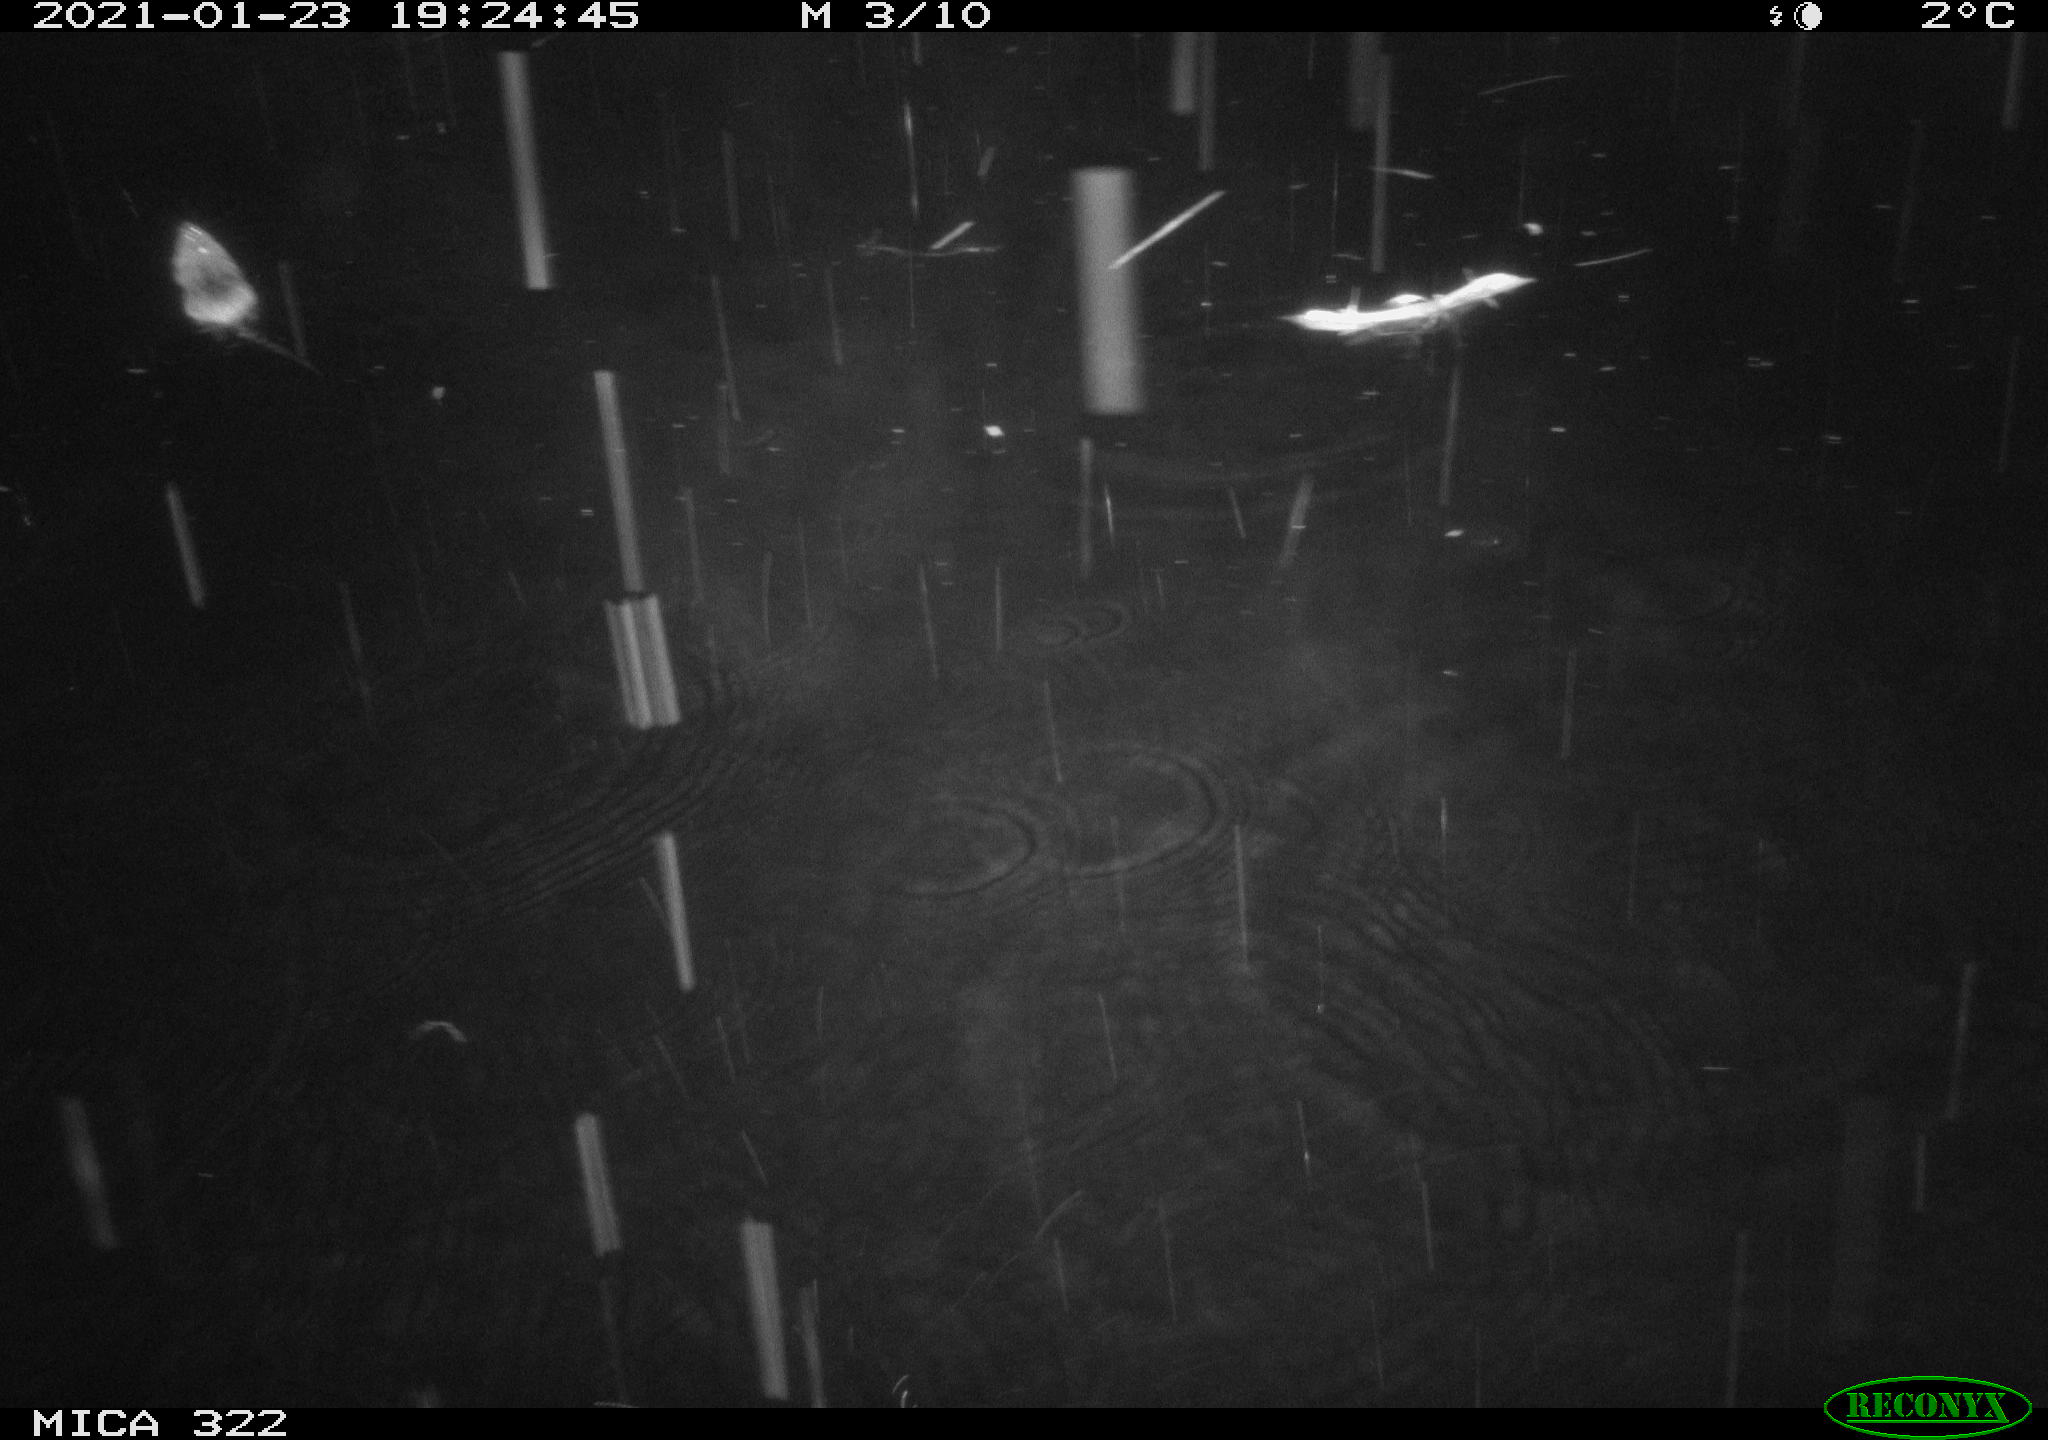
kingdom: Animalia
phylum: Chordata
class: Mammalia
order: Rodentia
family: Muridae
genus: Rattus
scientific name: Rattus norvegicus
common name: Brown rat
